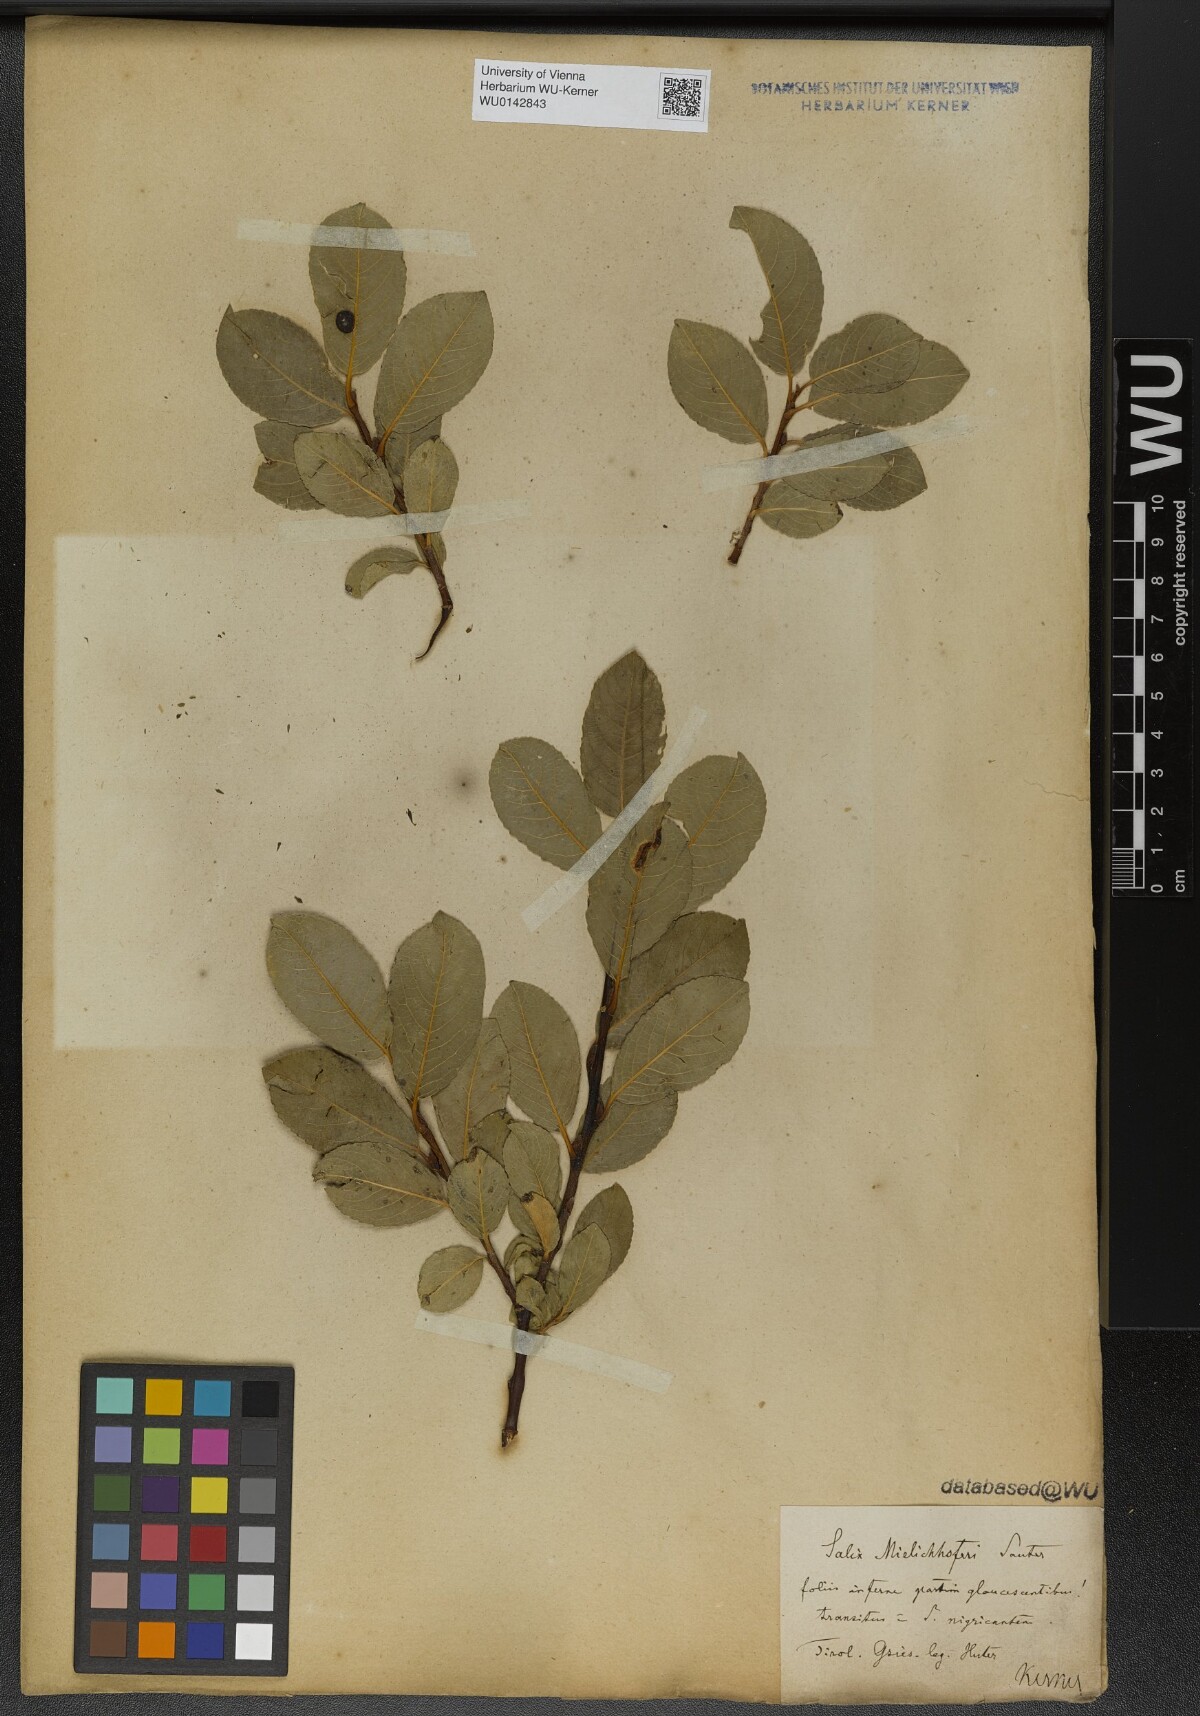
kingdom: Plantae
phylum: Tracheophyta
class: Magnoliopsida
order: Malpighiales
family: Salicaceae
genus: Salix
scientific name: Salix mielichhoferi
